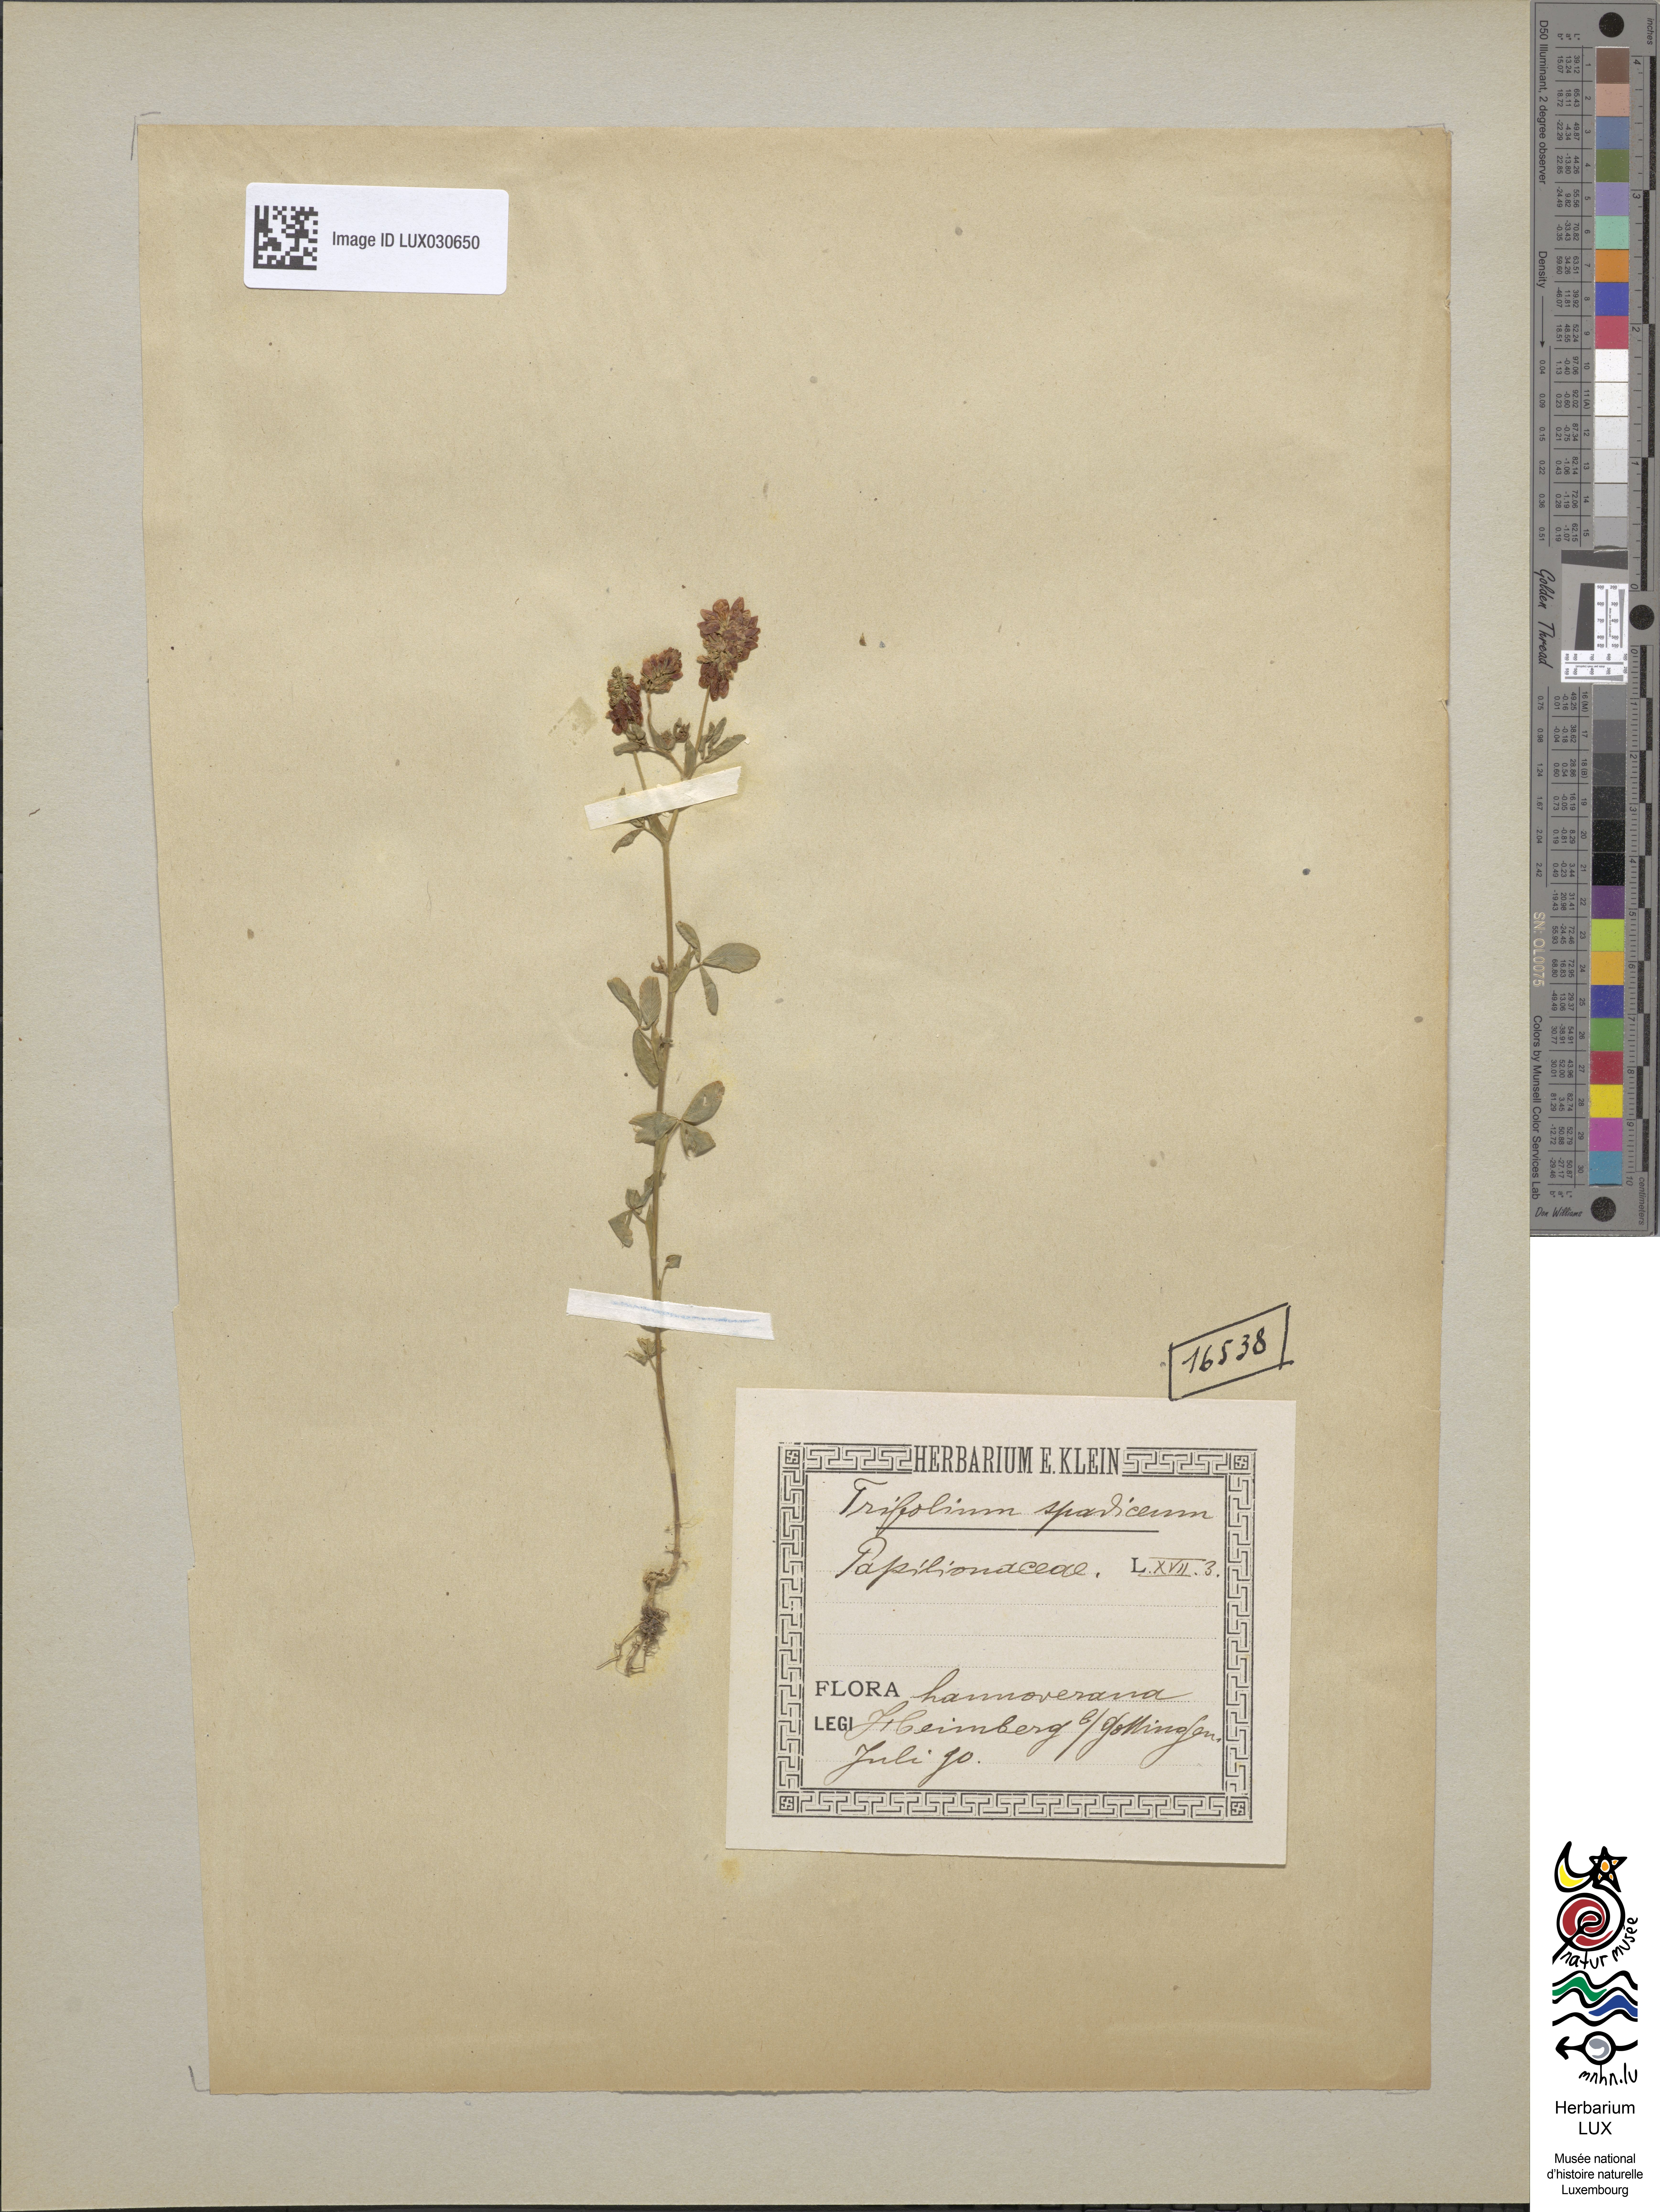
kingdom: Plantae
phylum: Tracheophyta
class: Magnoliopsida
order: Fabales
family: Fabaceae
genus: Trifolium
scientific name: Trifolium spadiceum
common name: Brown moor clover
